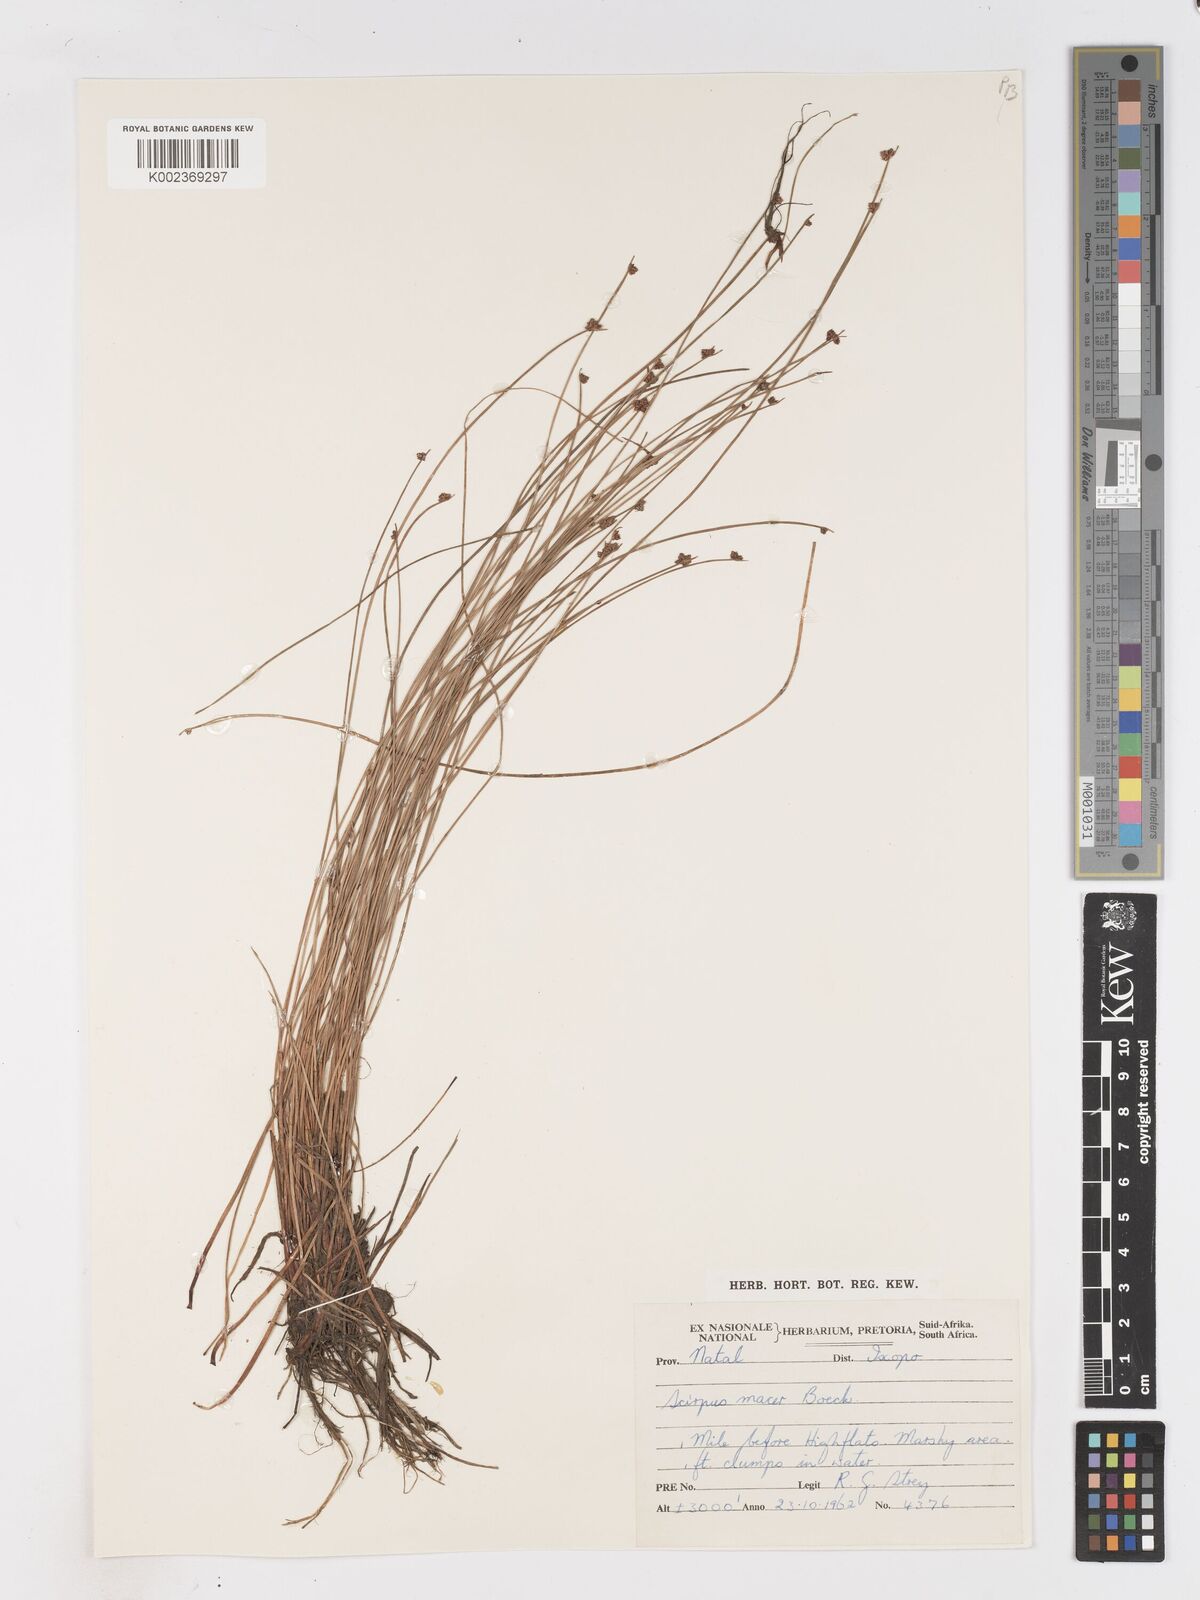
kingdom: Plantae
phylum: Tracheophyta
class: Liliopsida
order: Poales
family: Cyperaceae
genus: Isolepis
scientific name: Isolepis costata
